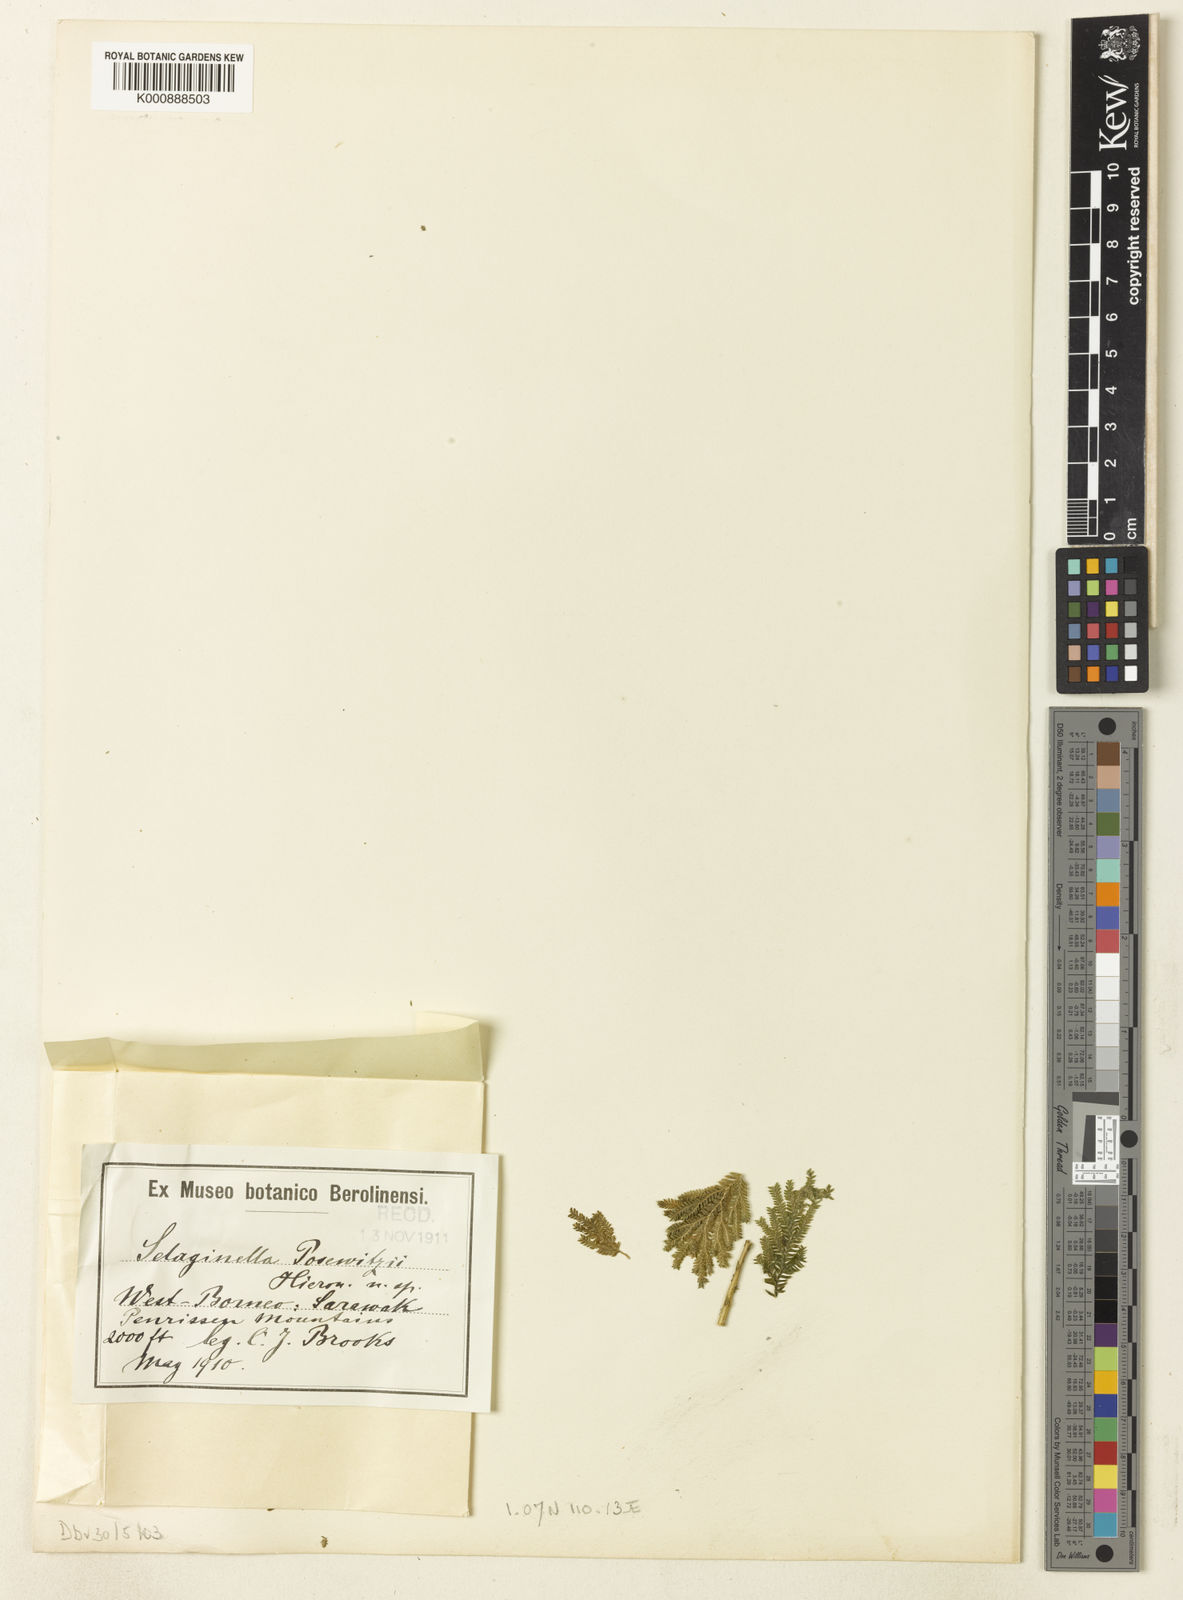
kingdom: Plantae
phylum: Tracheophyta
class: Lycopodiopsida
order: Selaginellales
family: Selaginellaceae
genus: Selaginella
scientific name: Selaginella posewitzii
